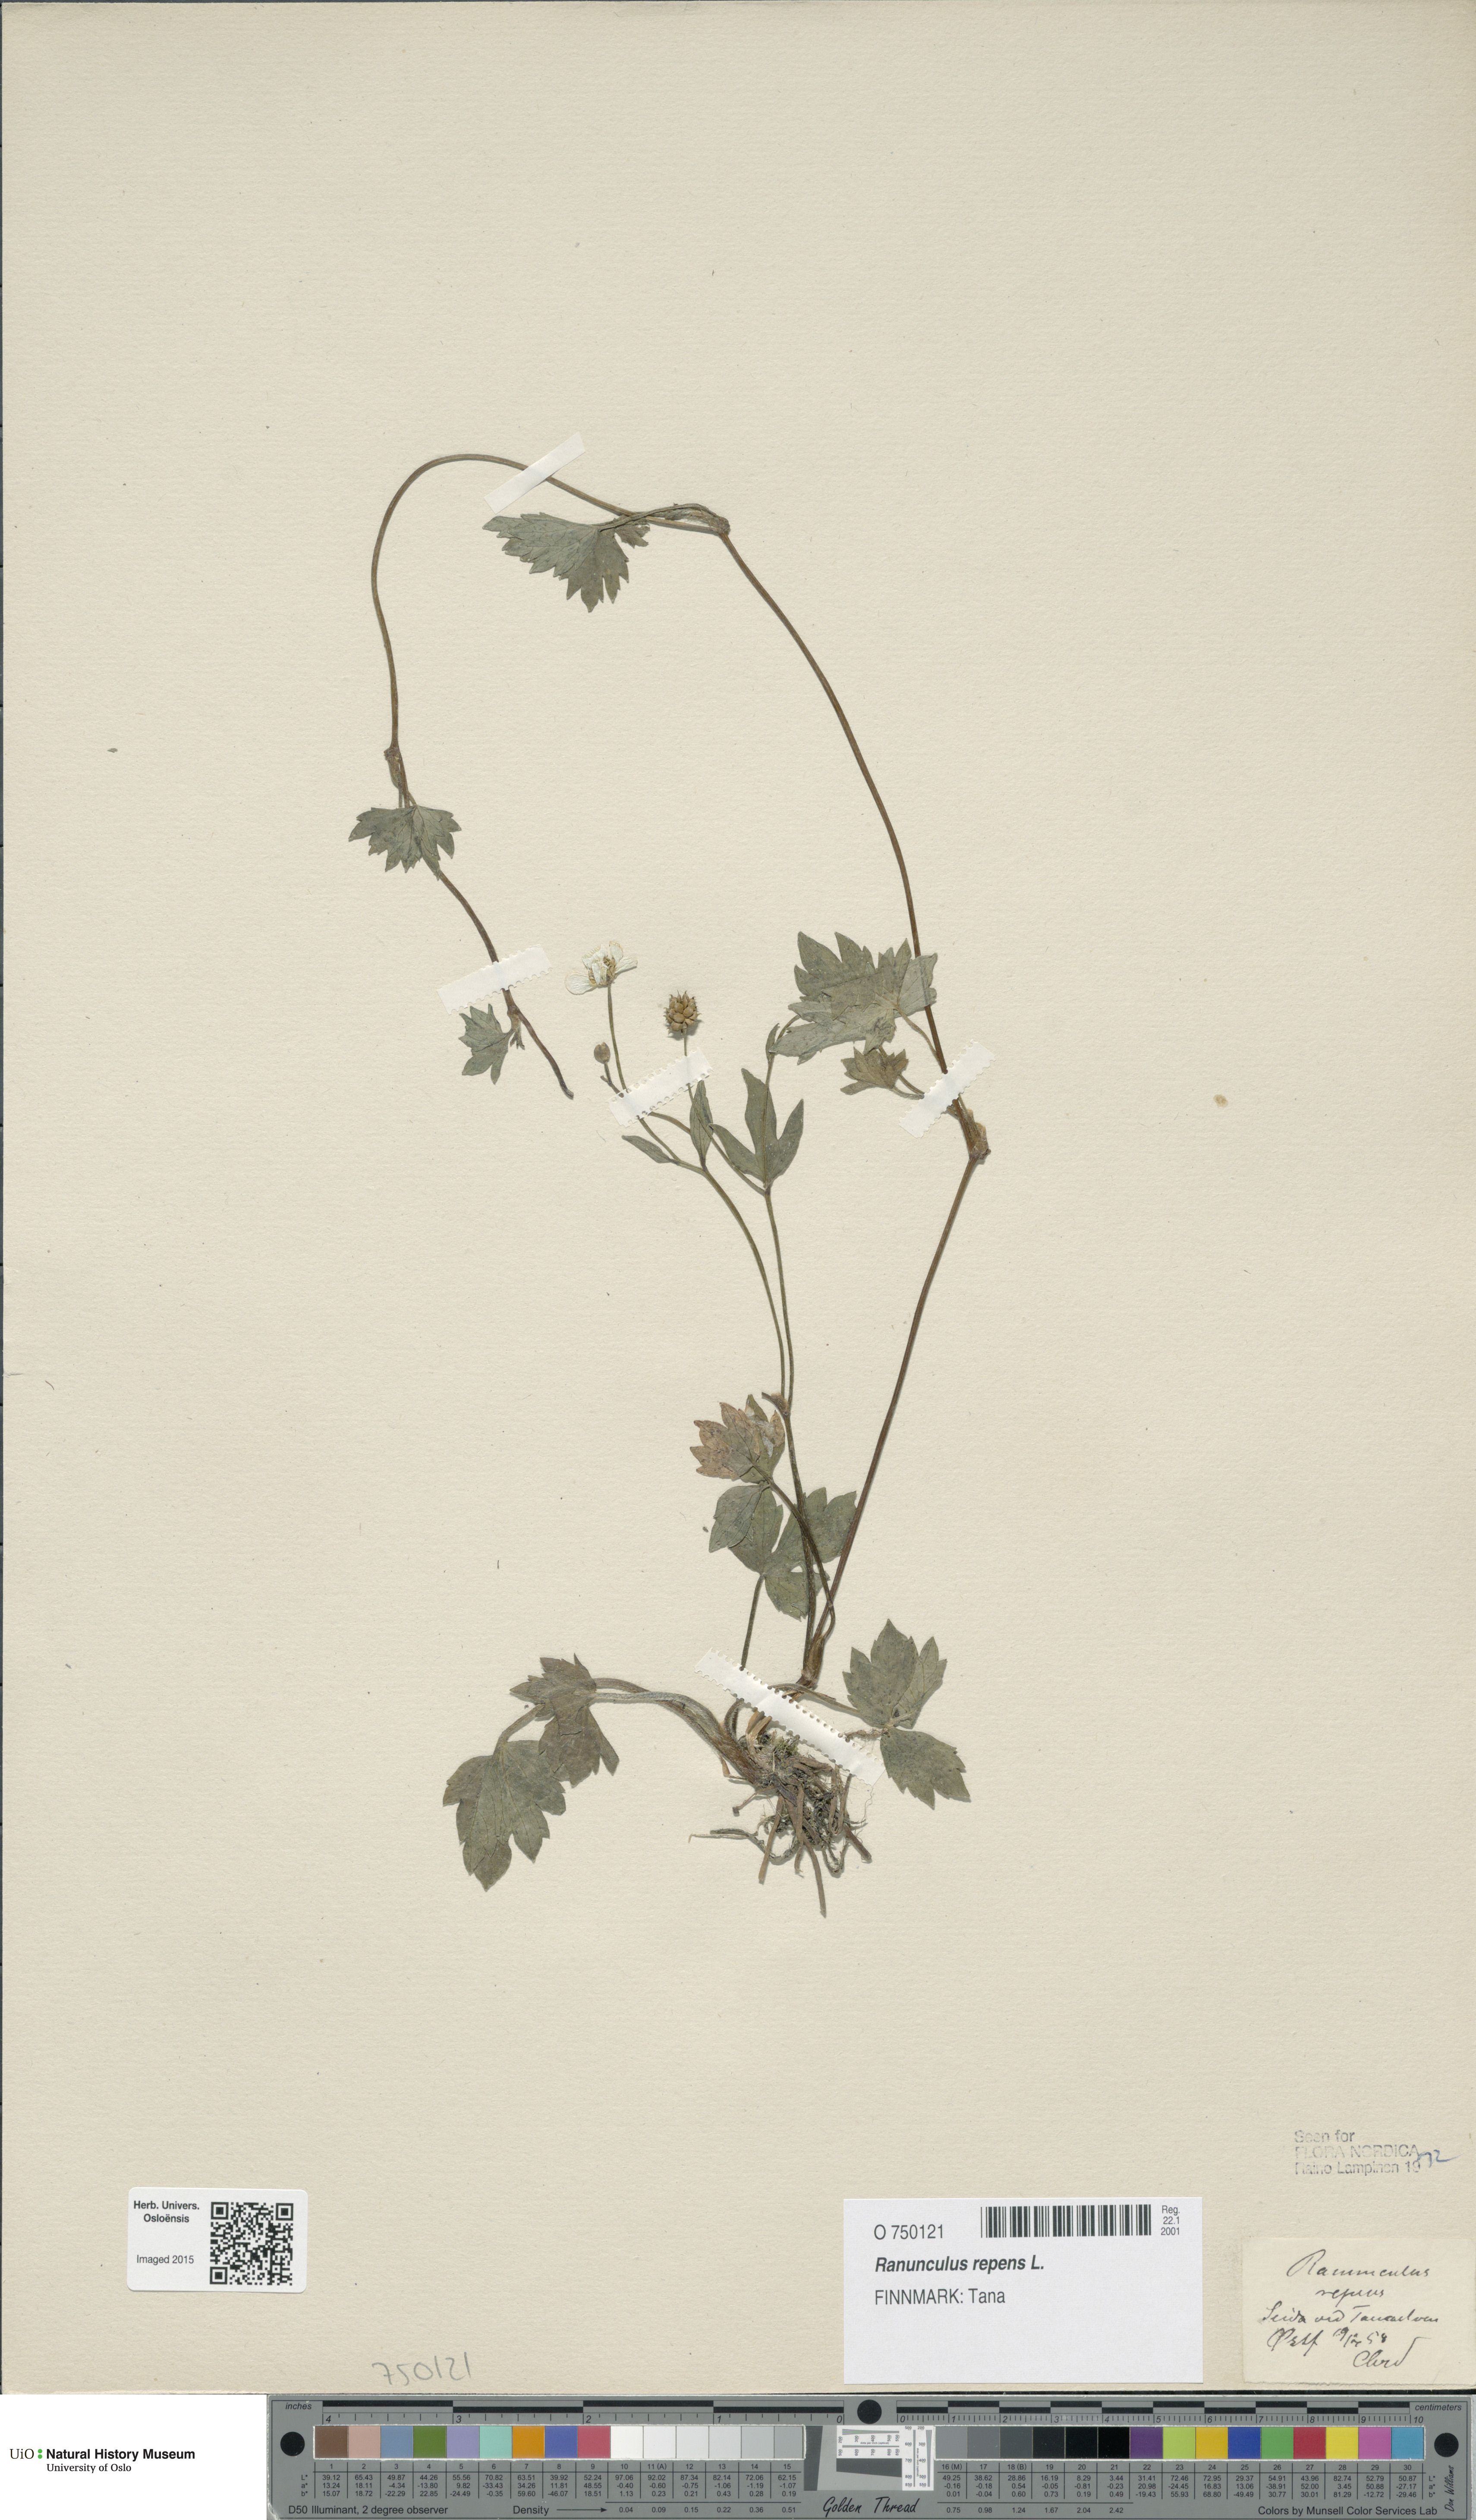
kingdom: Plantae
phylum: Tracheophyta
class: Magnoliopsida
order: Ranunculales
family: Ranunculaceae
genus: Ranunculus
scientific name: Ranunculus repens
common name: Creeping buttercup
